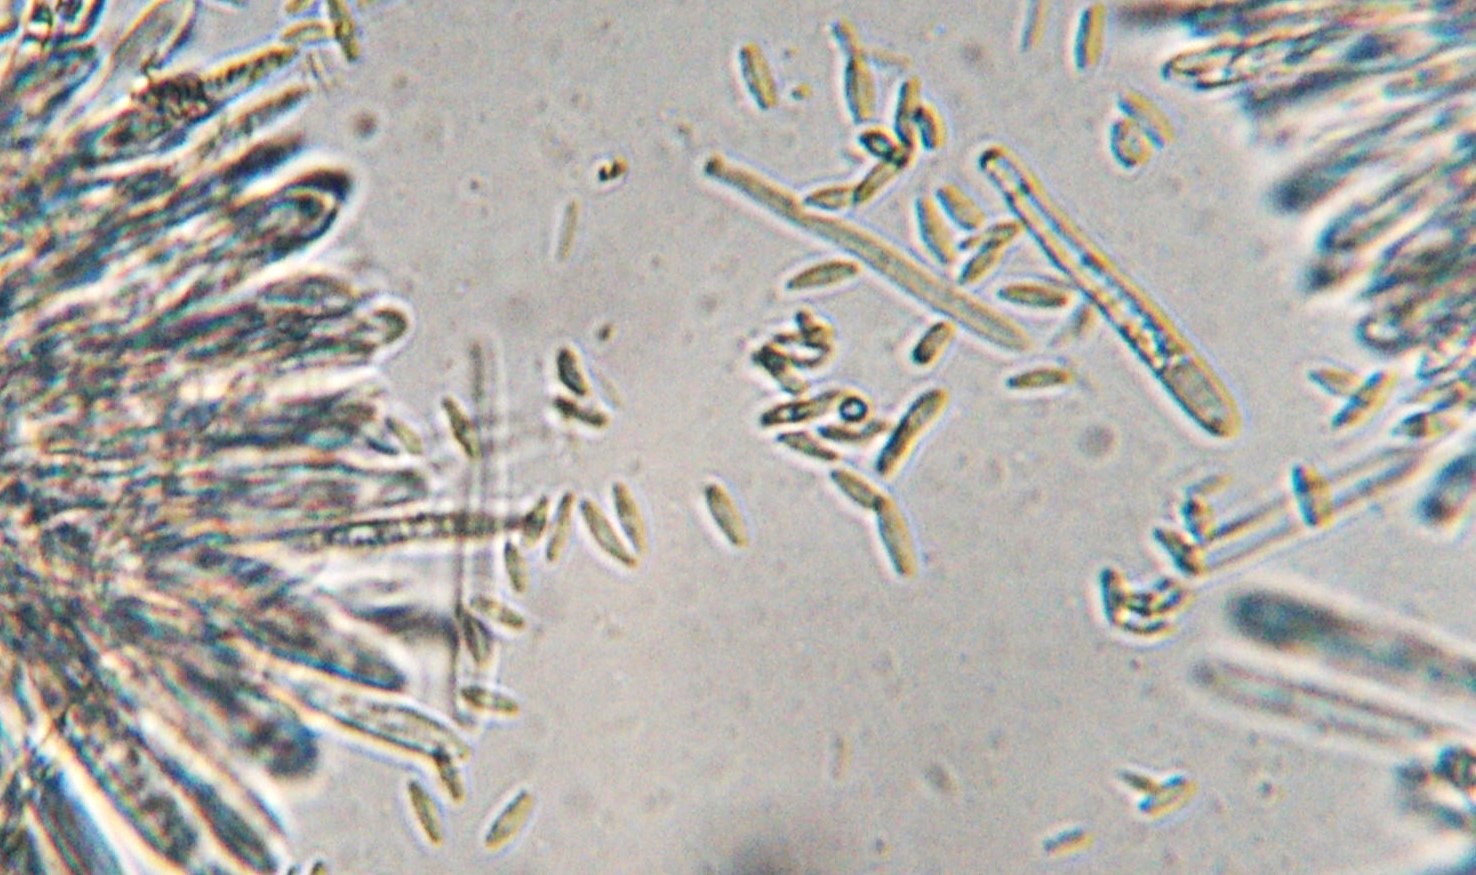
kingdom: Fungi
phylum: Ascomycota
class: Leotiomycetes
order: Helotiales
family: Lachnaceae
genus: Lachnum
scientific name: Lachnum
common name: frynseskive
